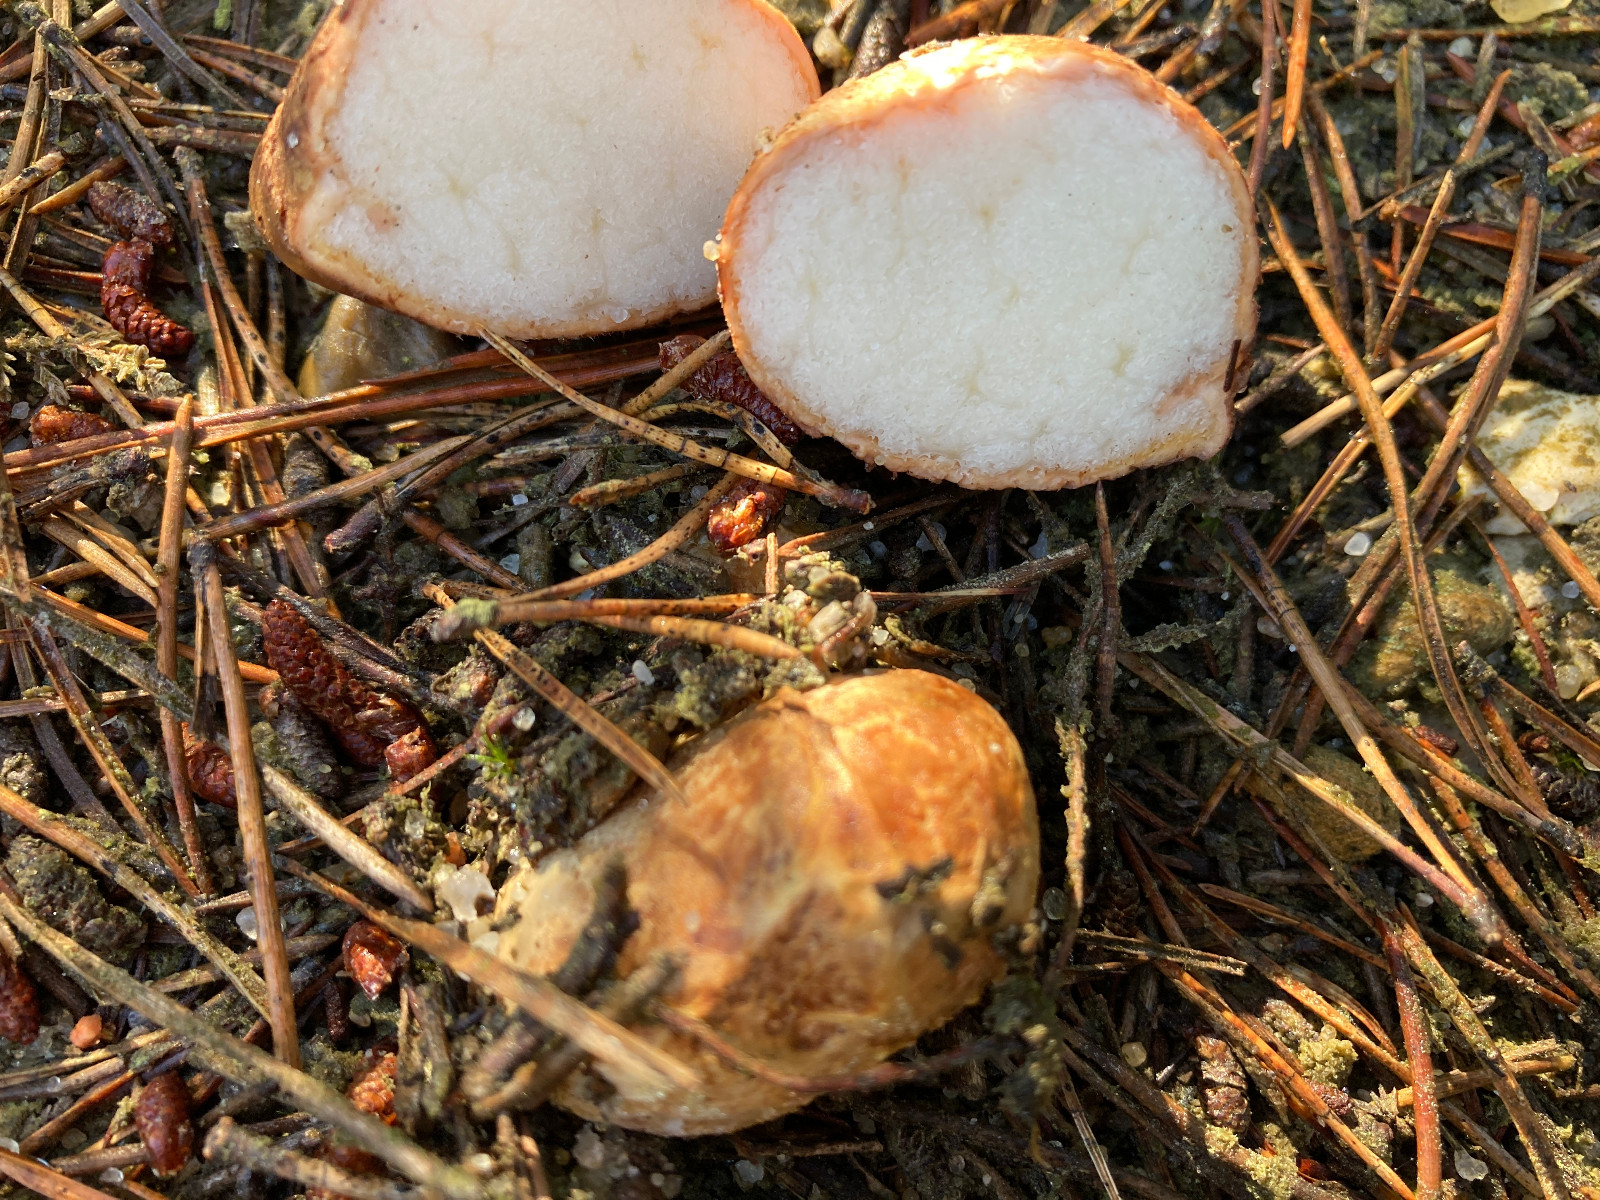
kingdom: Fungi
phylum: Basidiomycota
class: Agaricomycetes
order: Boletales
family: Rhizopogonaceae
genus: Rhizopogon
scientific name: Rhizopogon pseudoroseolus
